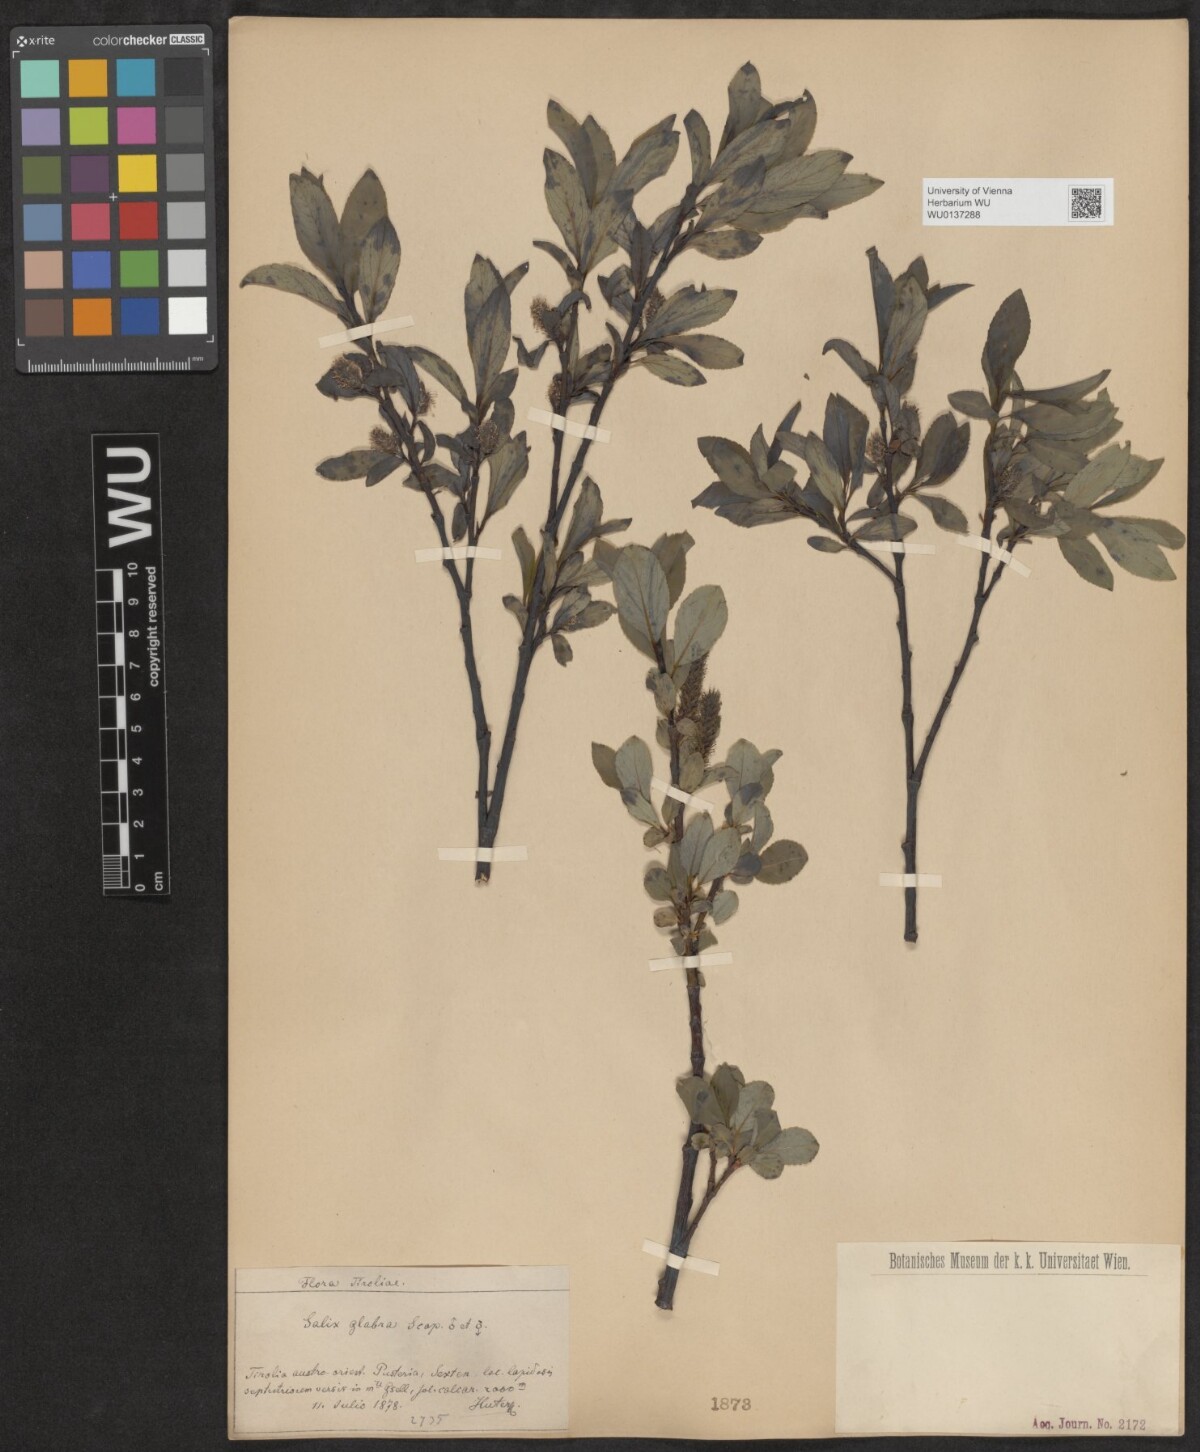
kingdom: Plantae
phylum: Tracheophyta
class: Magnoliopsida
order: Malpighiales
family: Salicaceae
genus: Salix
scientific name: Salix glabra
